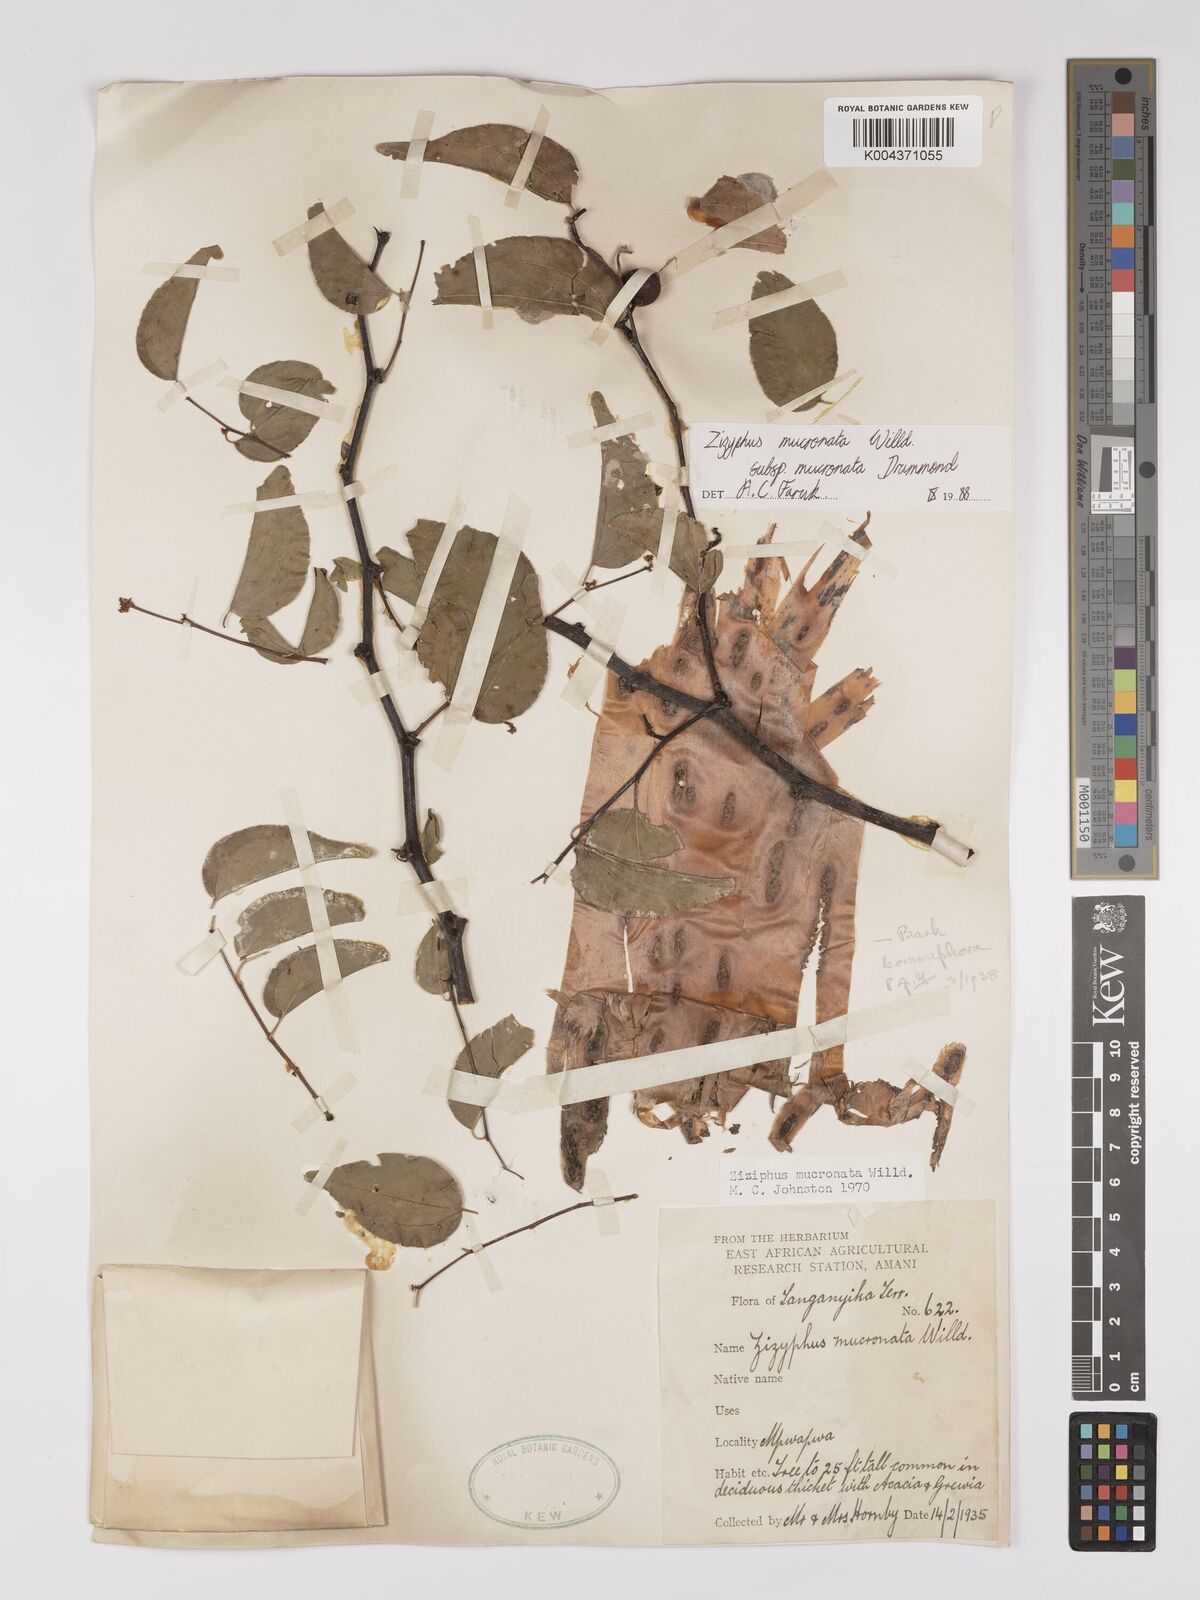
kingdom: Plantae
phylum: Tracheophyta
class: Magnoliopsida
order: Rosales
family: Rhamnaceae
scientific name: Rhamnaceae
